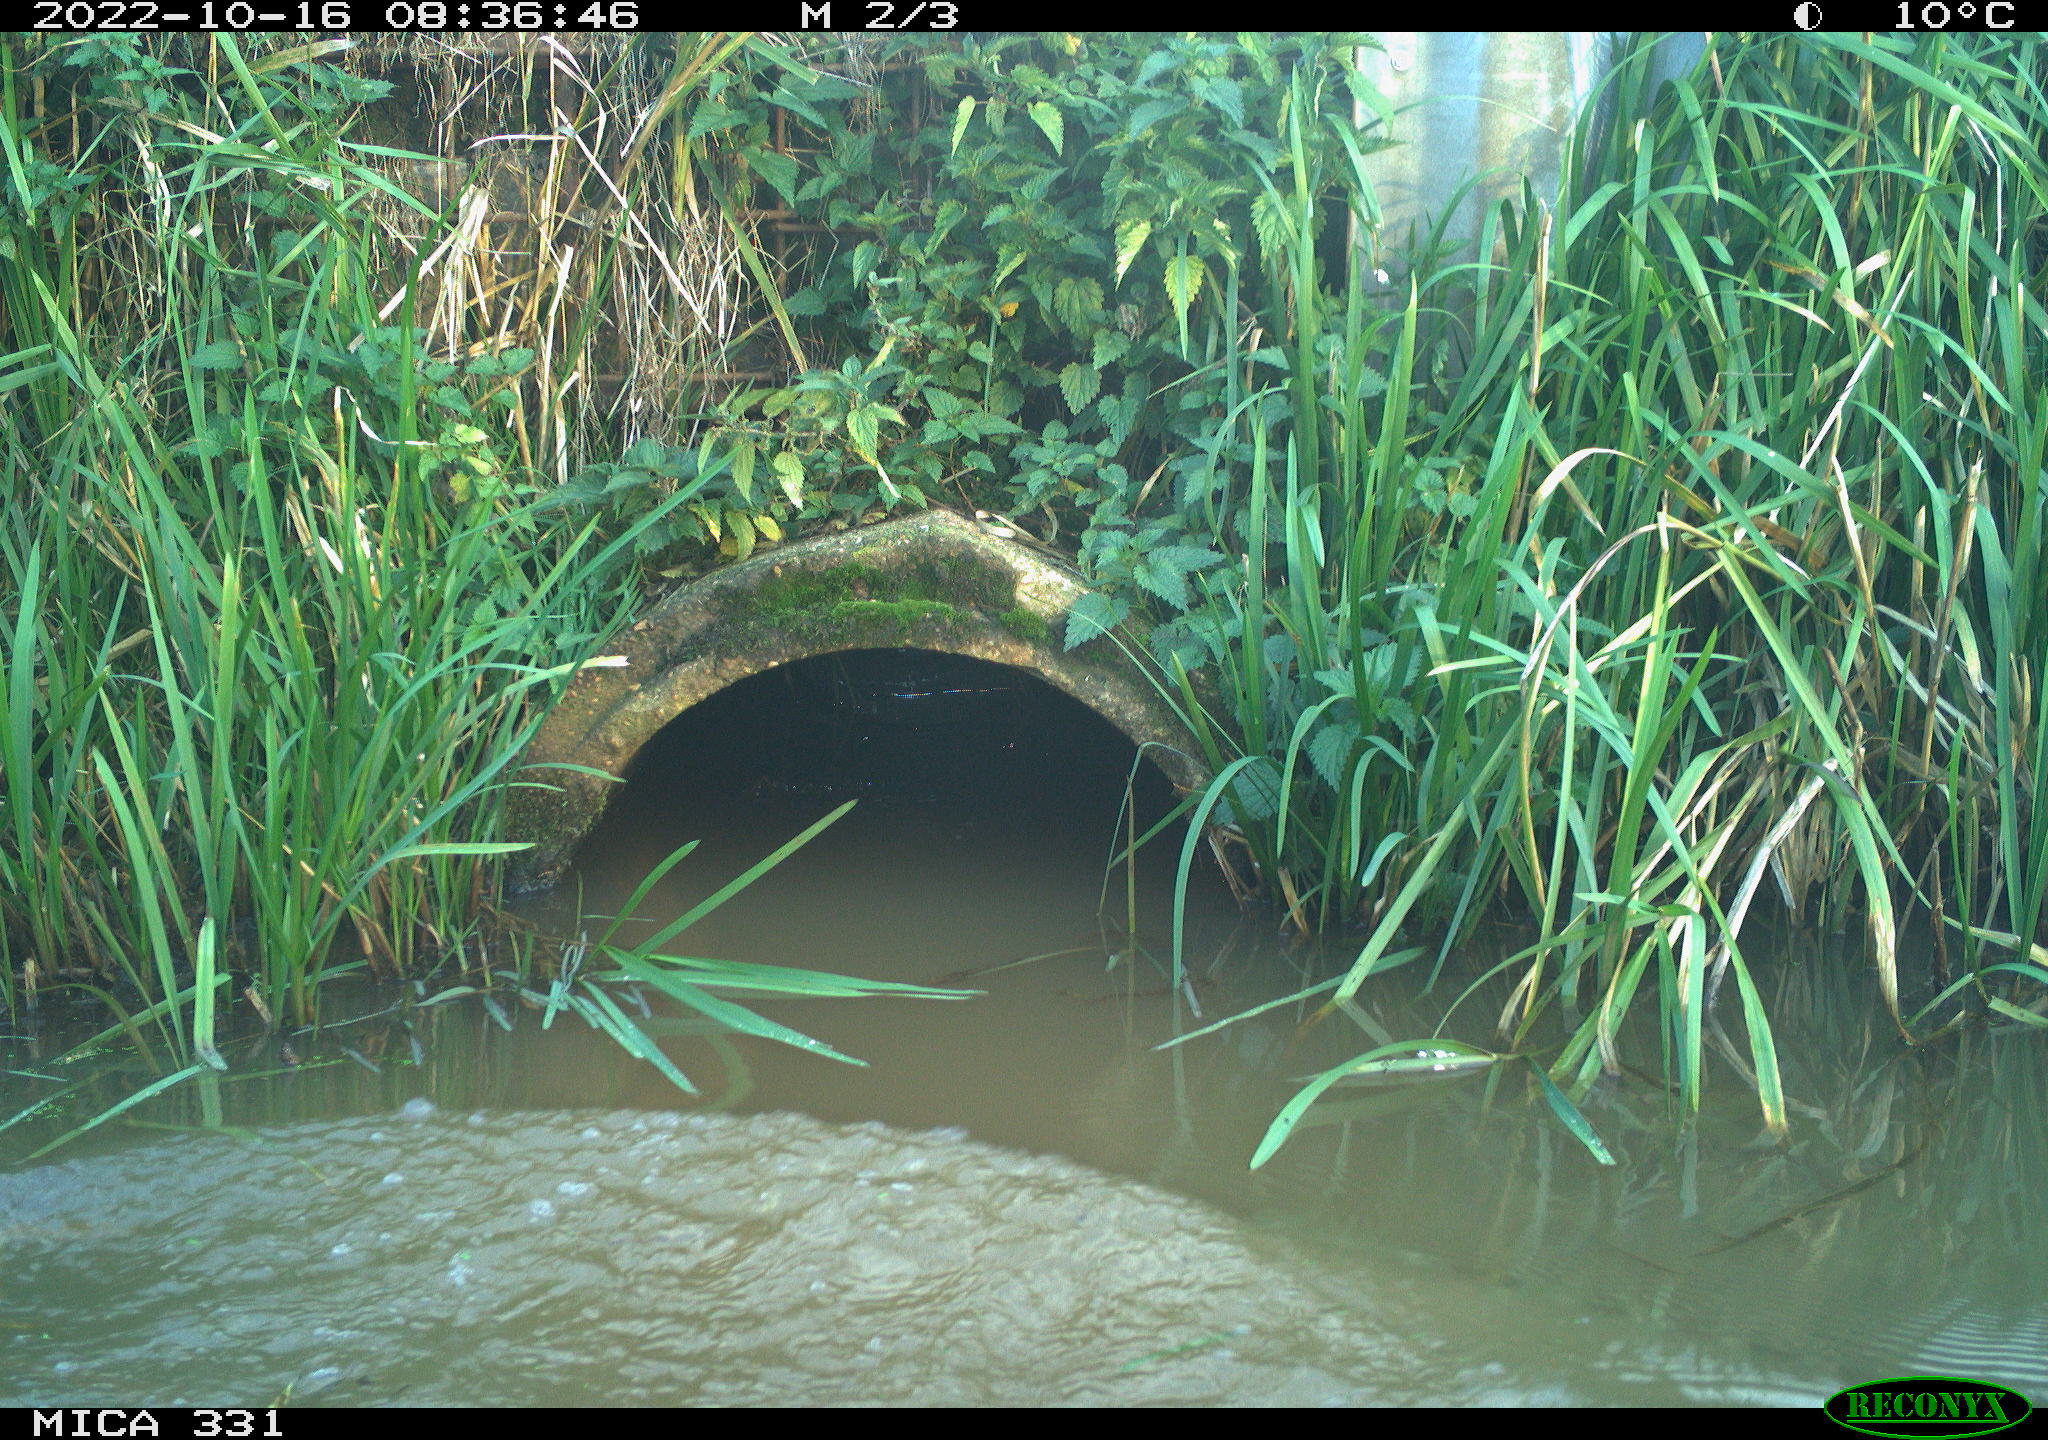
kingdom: Animalia
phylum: Chordata
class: Aves
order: Anseriformes
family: Anatidae
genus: Cygnus
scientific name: Cygnus olor
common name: Mute swan
